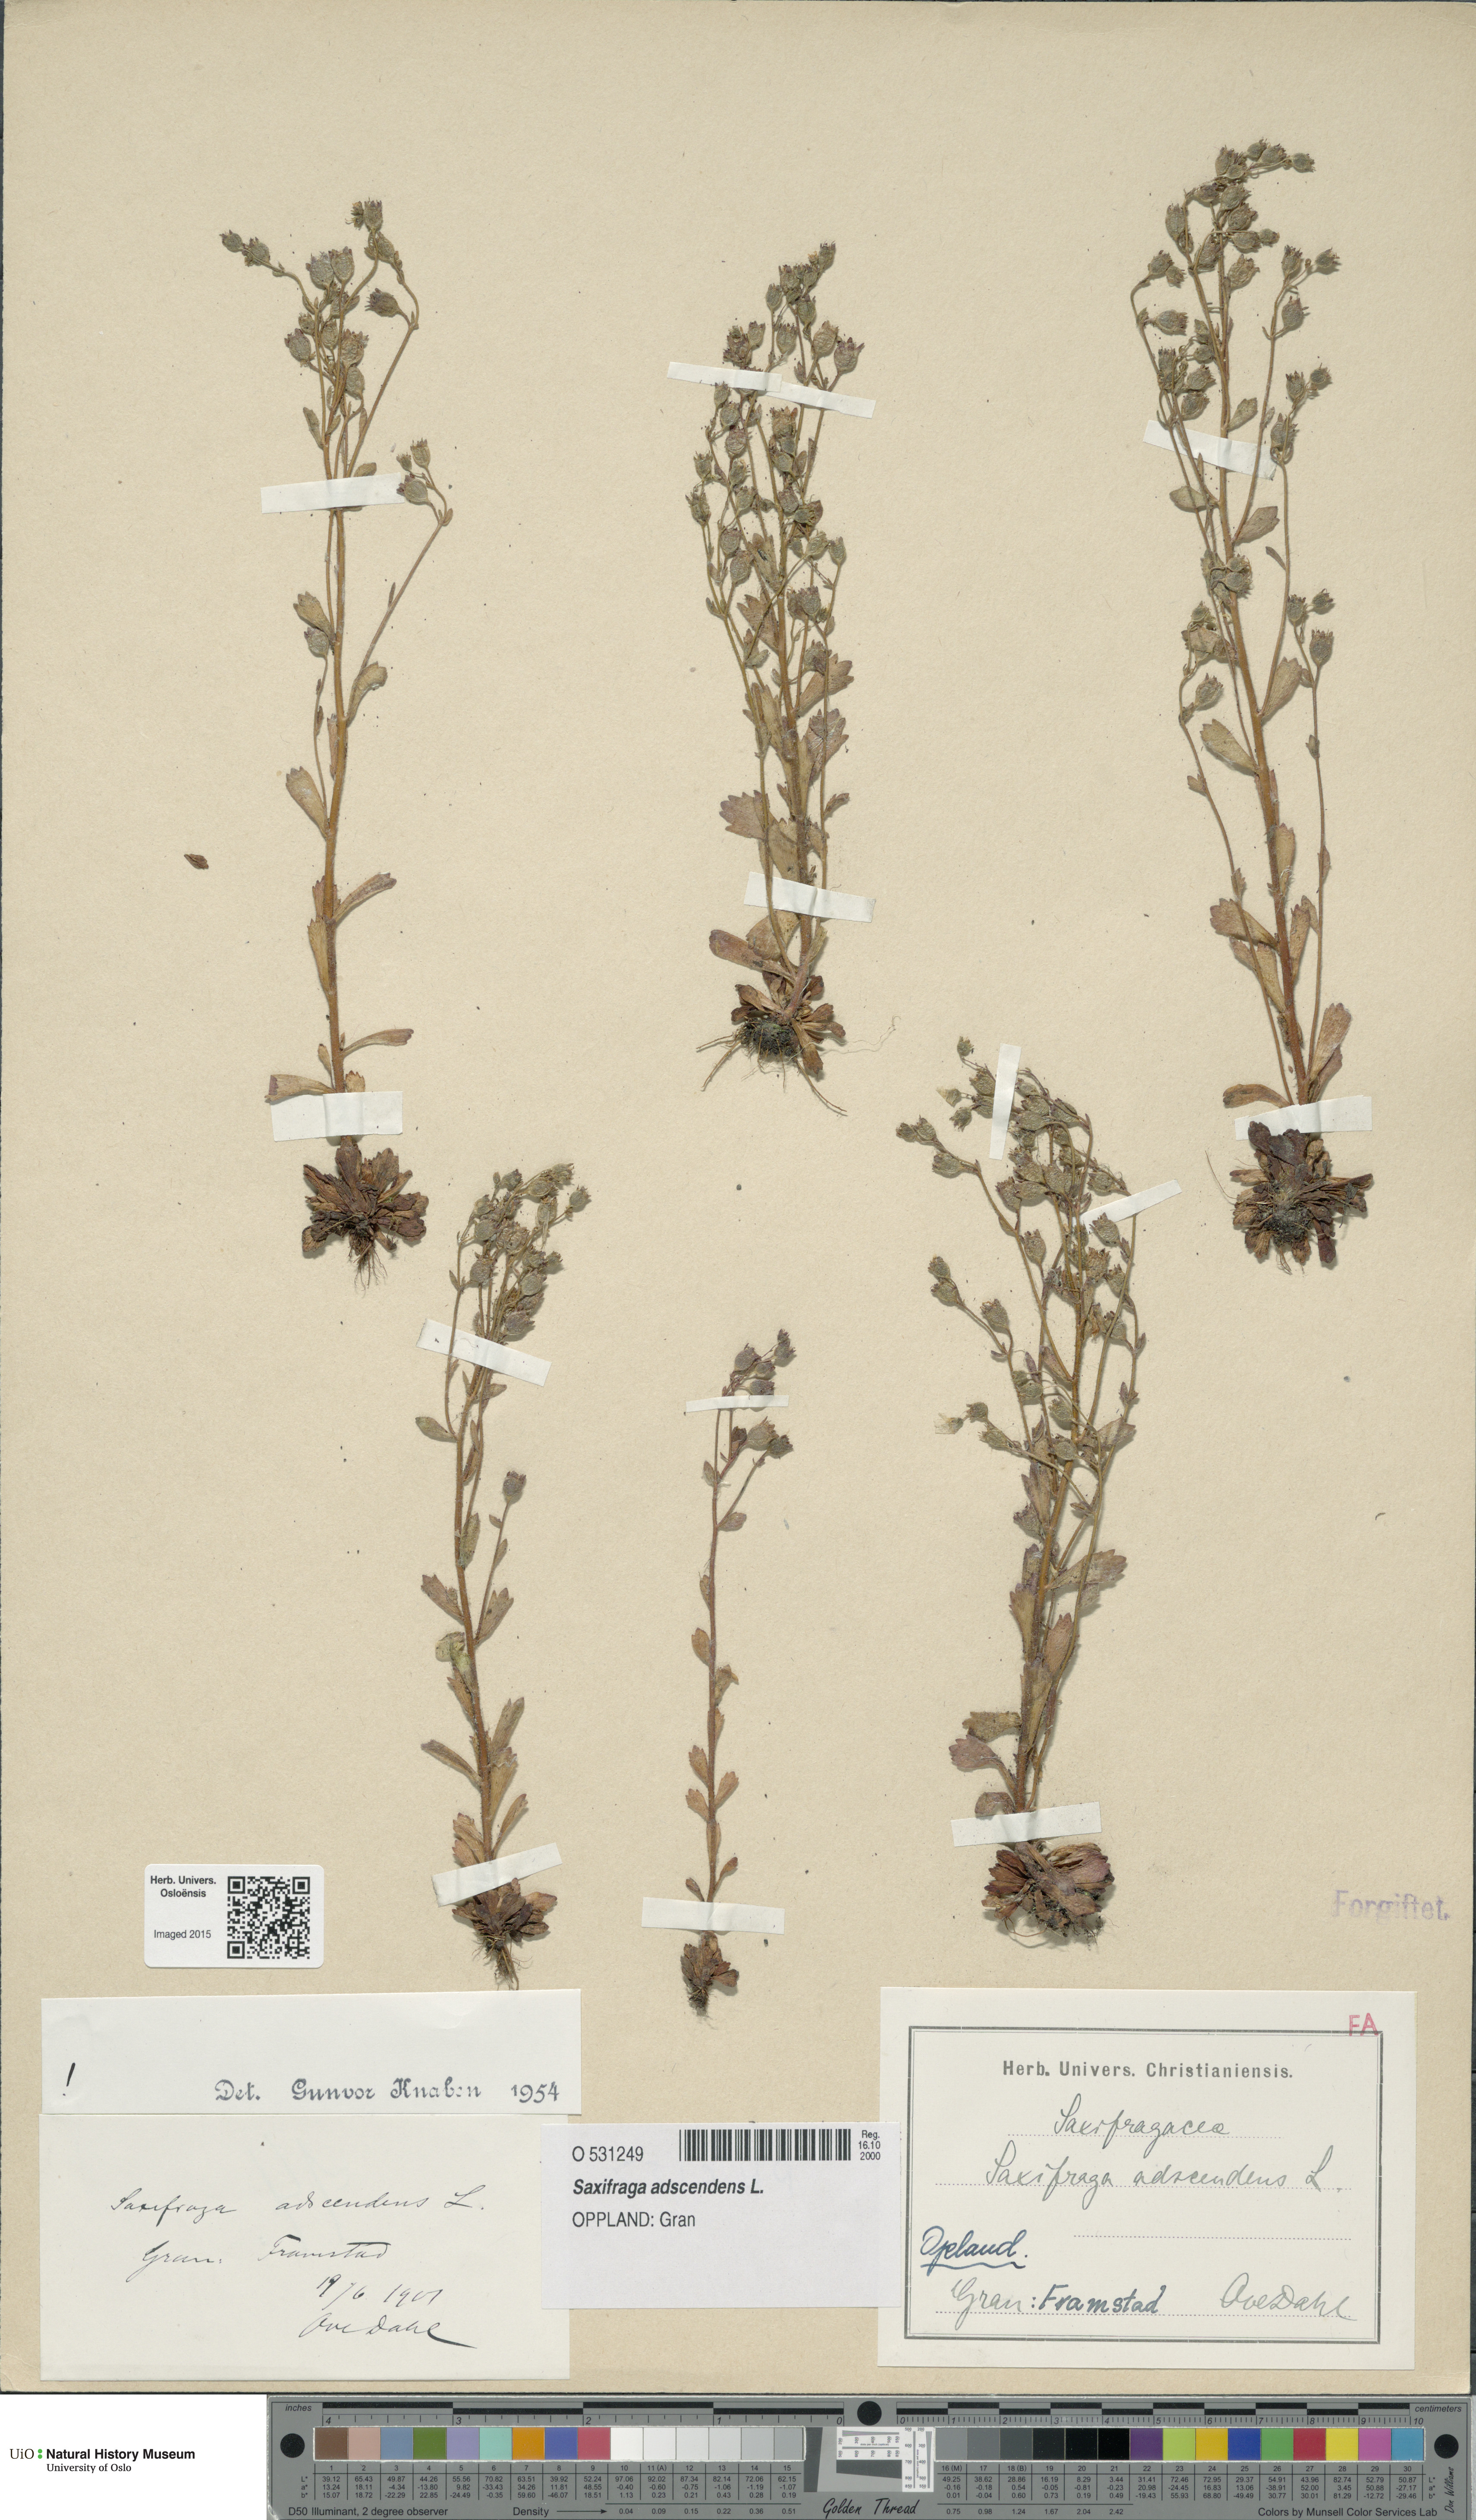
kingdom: Plantae
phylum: Tracheophyta
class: Magnoliopsida
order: Saxifragales
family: Saxifragaceae
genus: Saxifraga
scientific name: Saxifraga adscendens
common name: Ascending saxifrage
